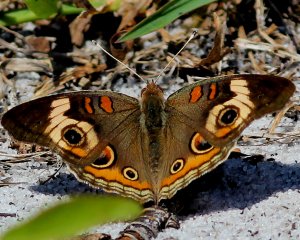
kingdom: Animalia
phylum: Arthropoda
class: Insecta
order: Lepidoptera
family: Nymphalidae
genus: Junonia
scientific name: Junonia coenia
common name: Common Buckeye
